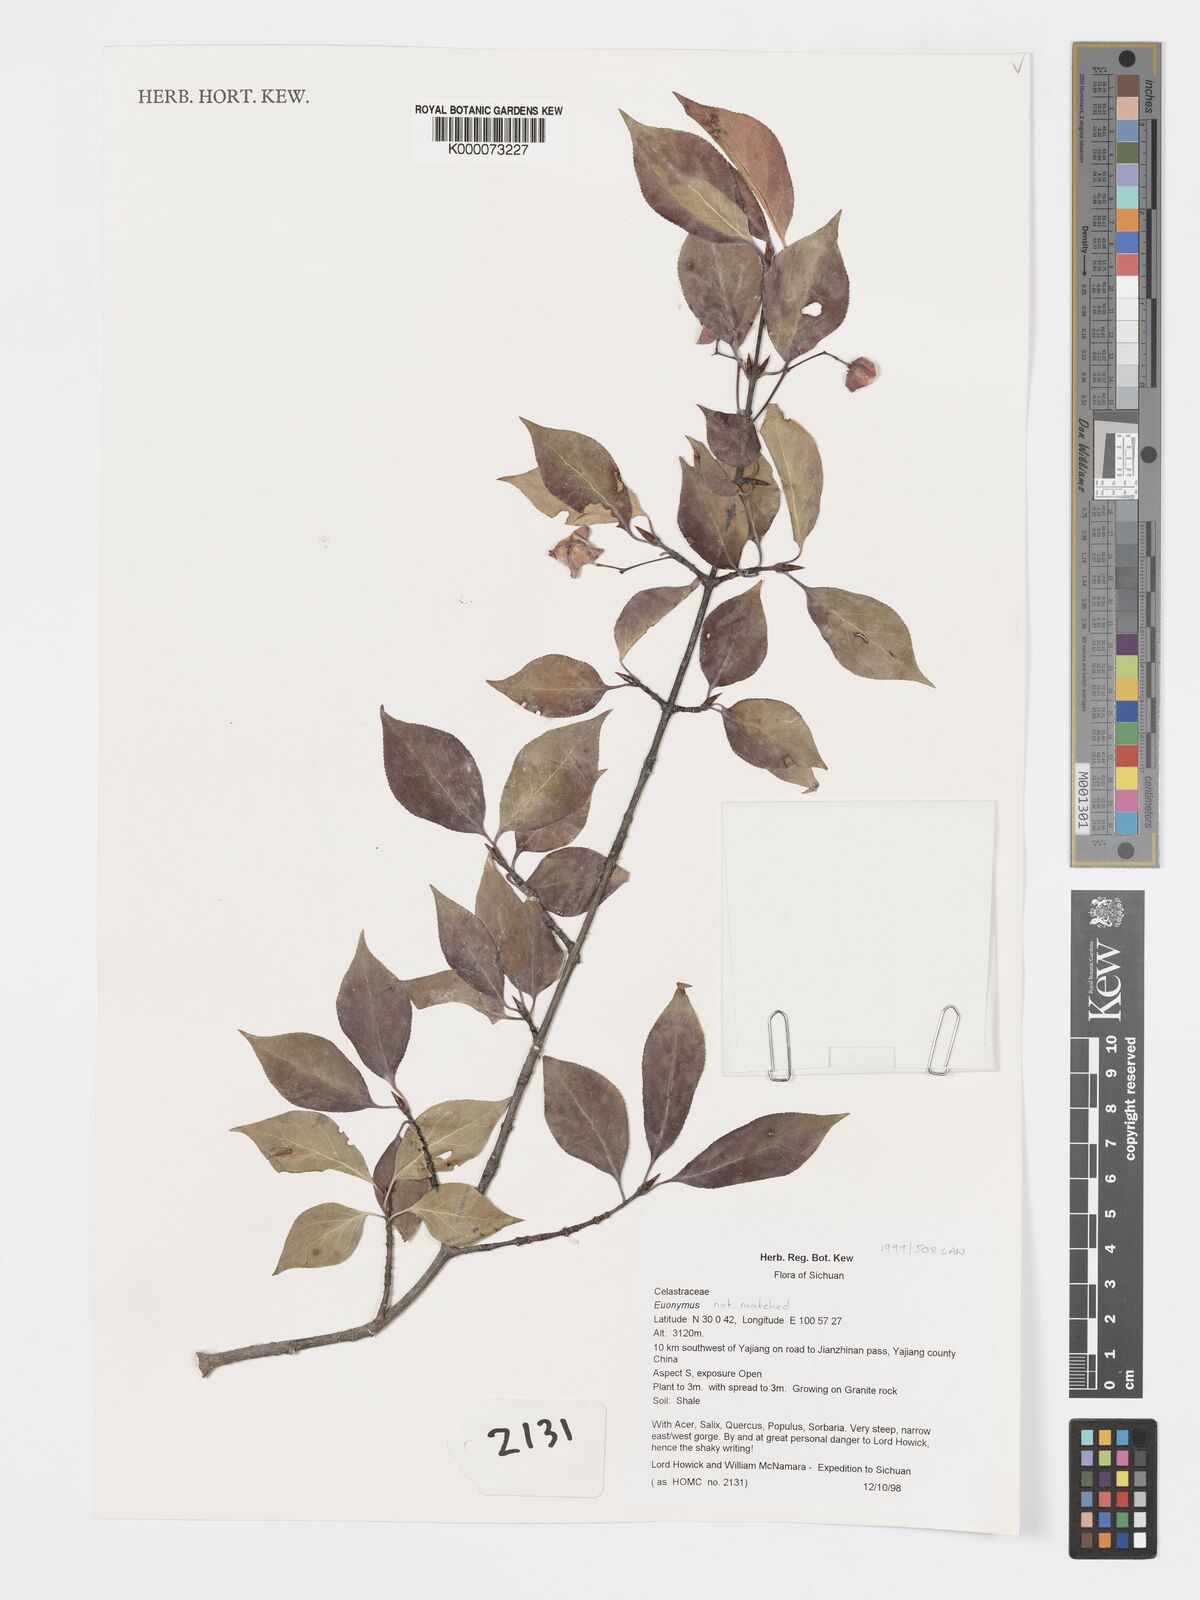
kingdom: Plantae
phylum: Tracheophyta
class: Magnoliopsida
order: Celastrales
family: Celastraceae
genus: Euonymus
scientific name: Euonymus
